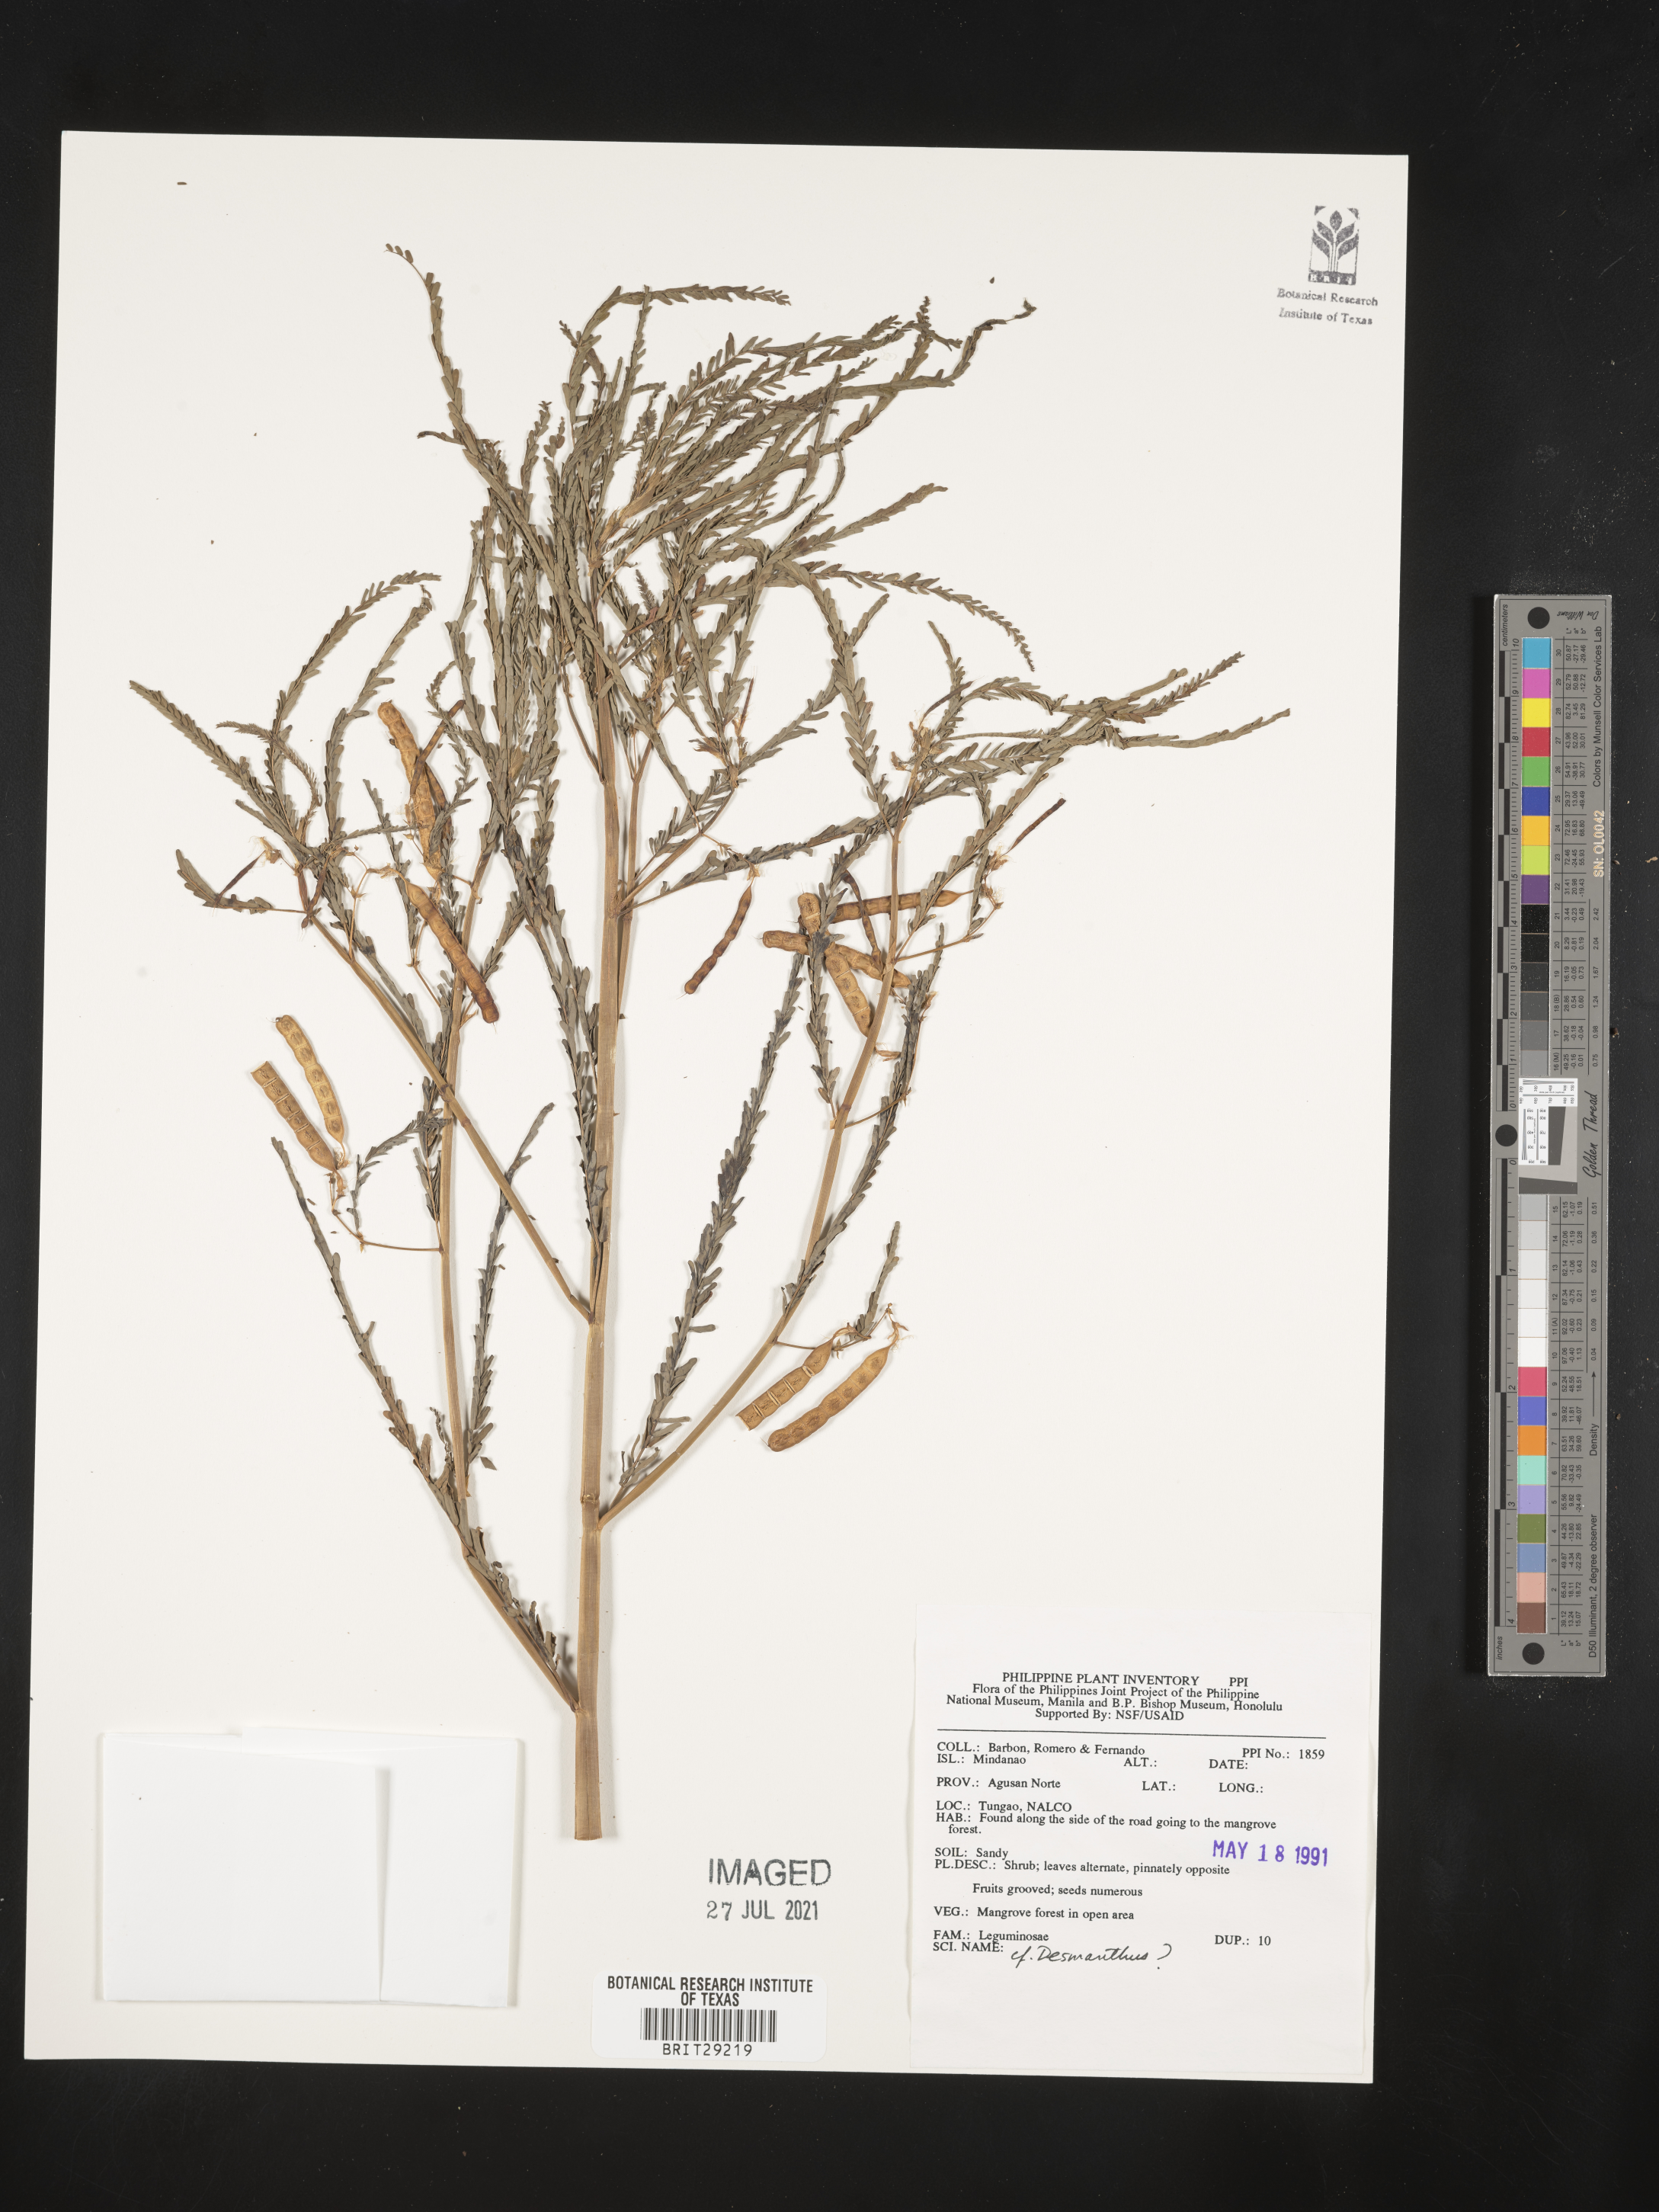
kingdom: Plantae
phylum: Tracheophyta
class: Magnoliopsida
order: Fabales
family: Fabaceae
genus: Desmanthus
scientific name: Desmanthus
